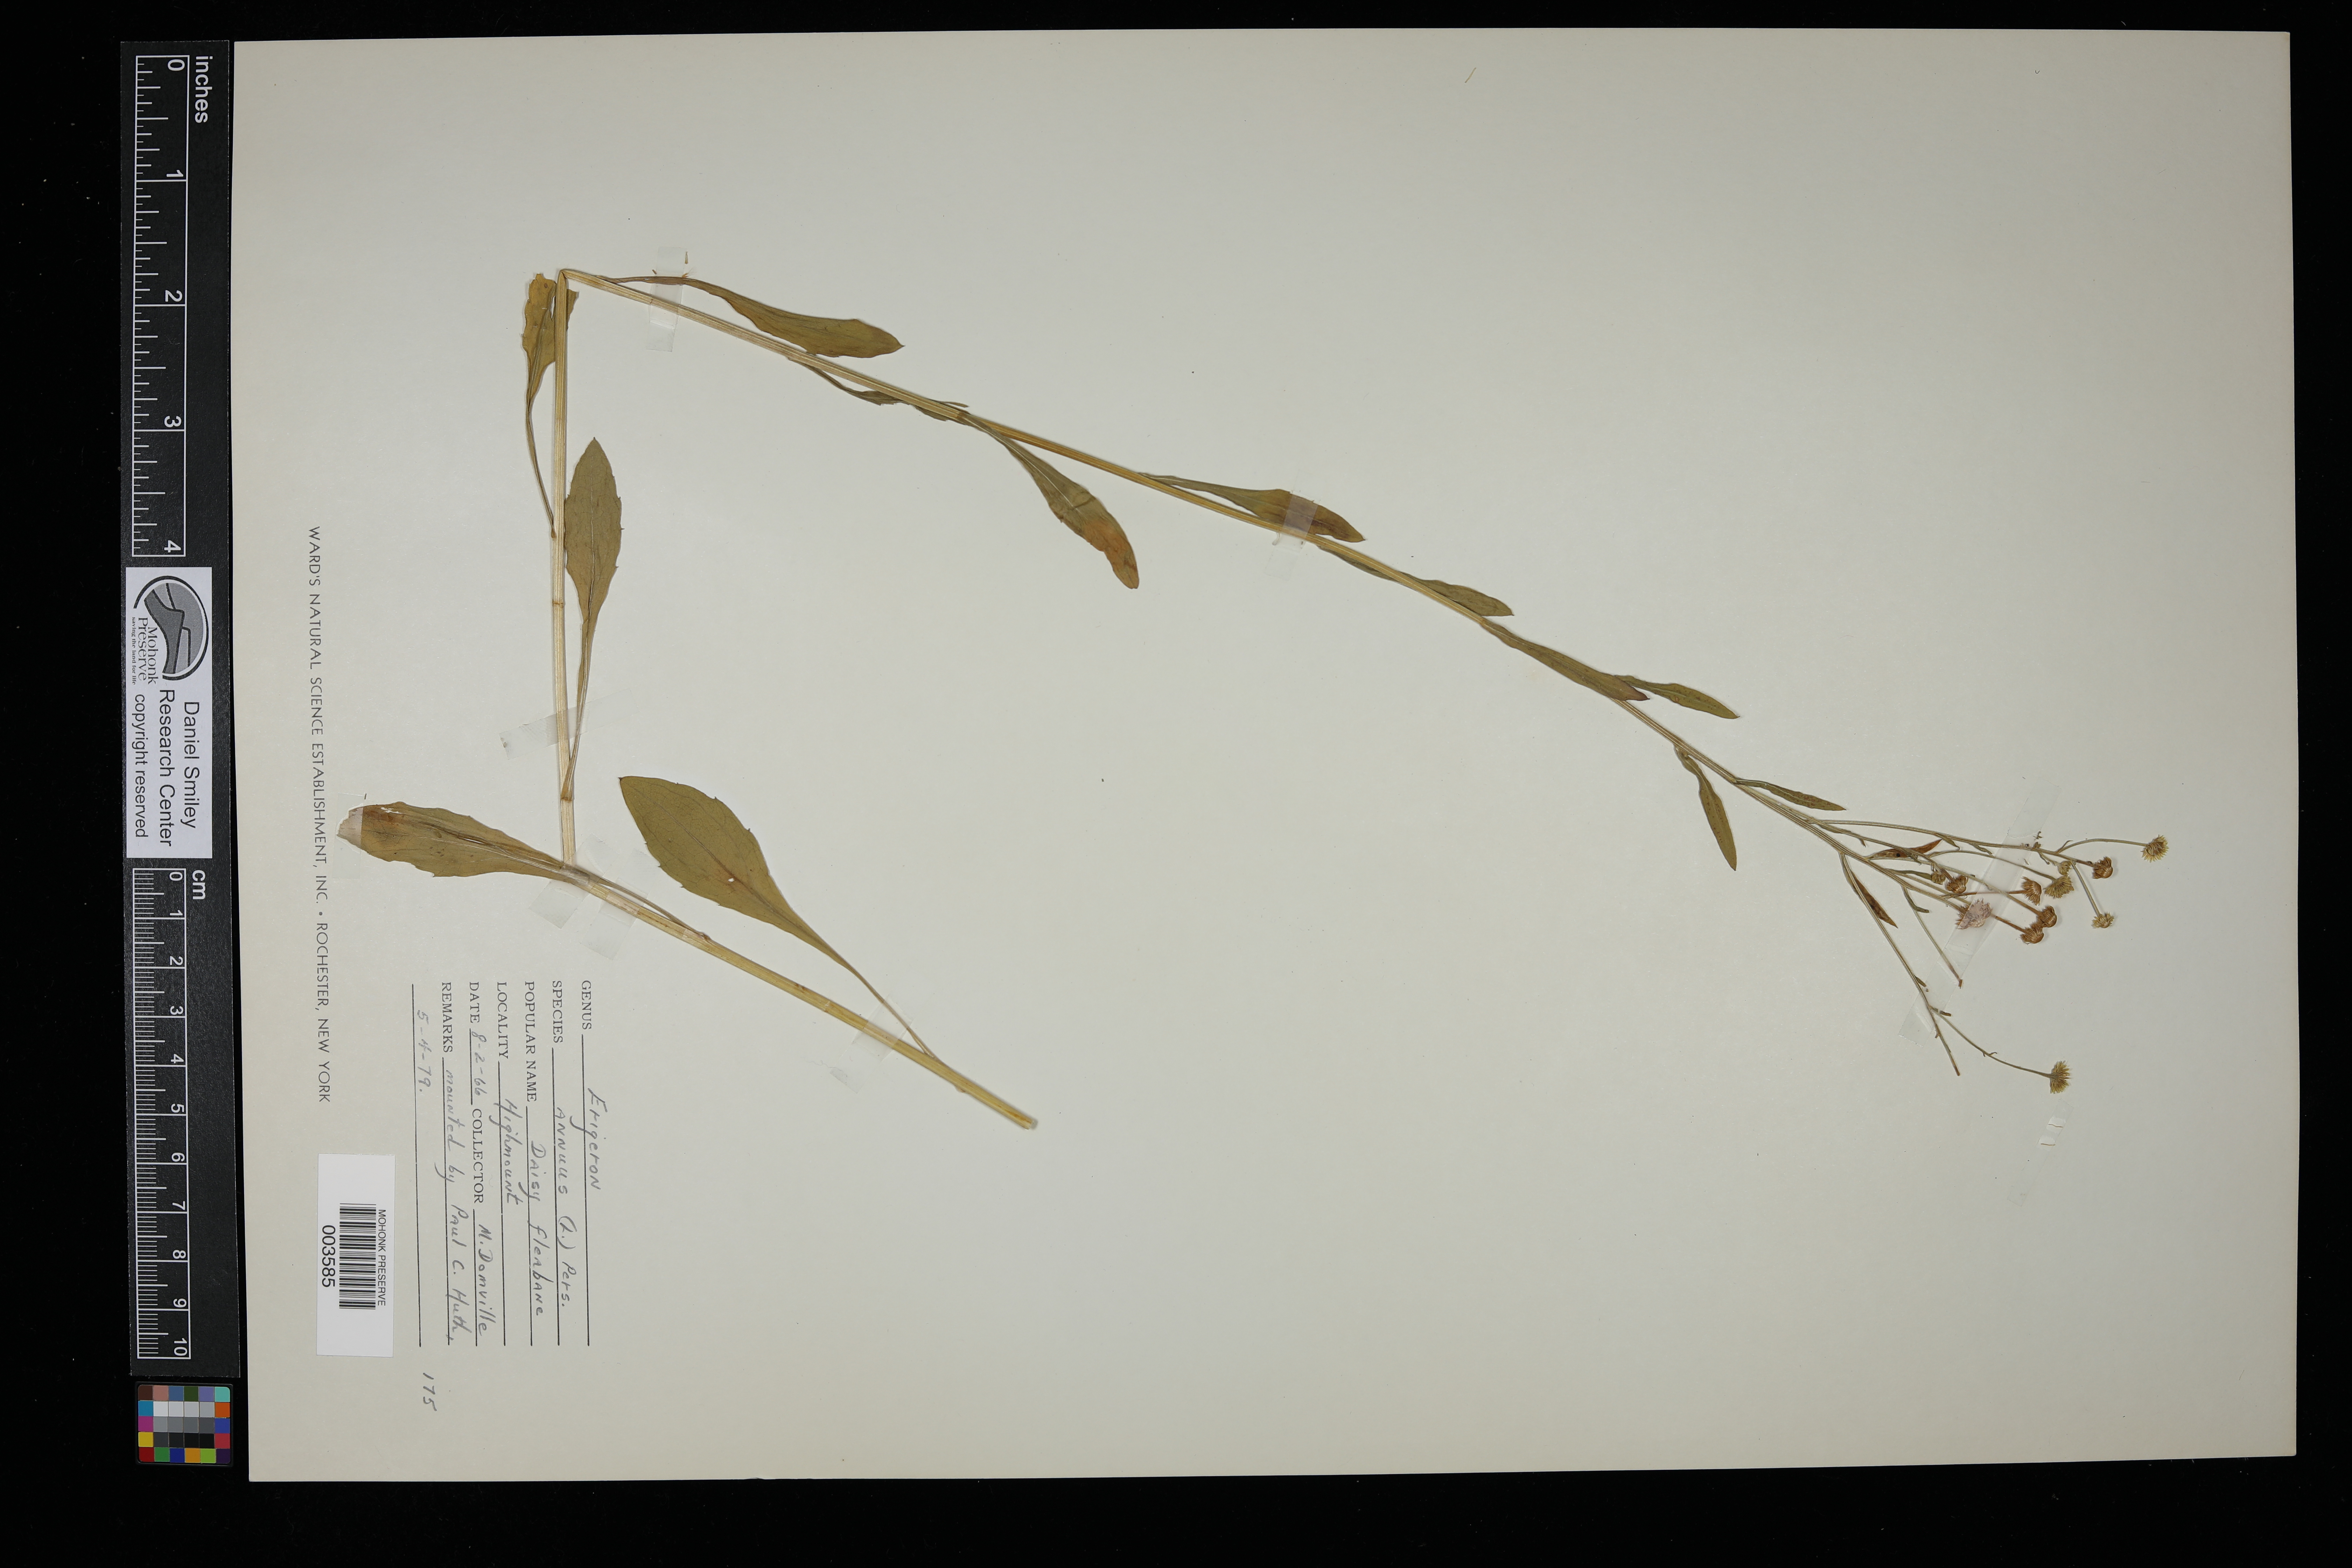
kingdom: Plantae
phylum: Tracheophyta
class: Magnoliopsida
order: Asterales
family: Asteraceae
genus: Erigeron
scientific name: Erigeron annuus
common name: Tall fleabane
